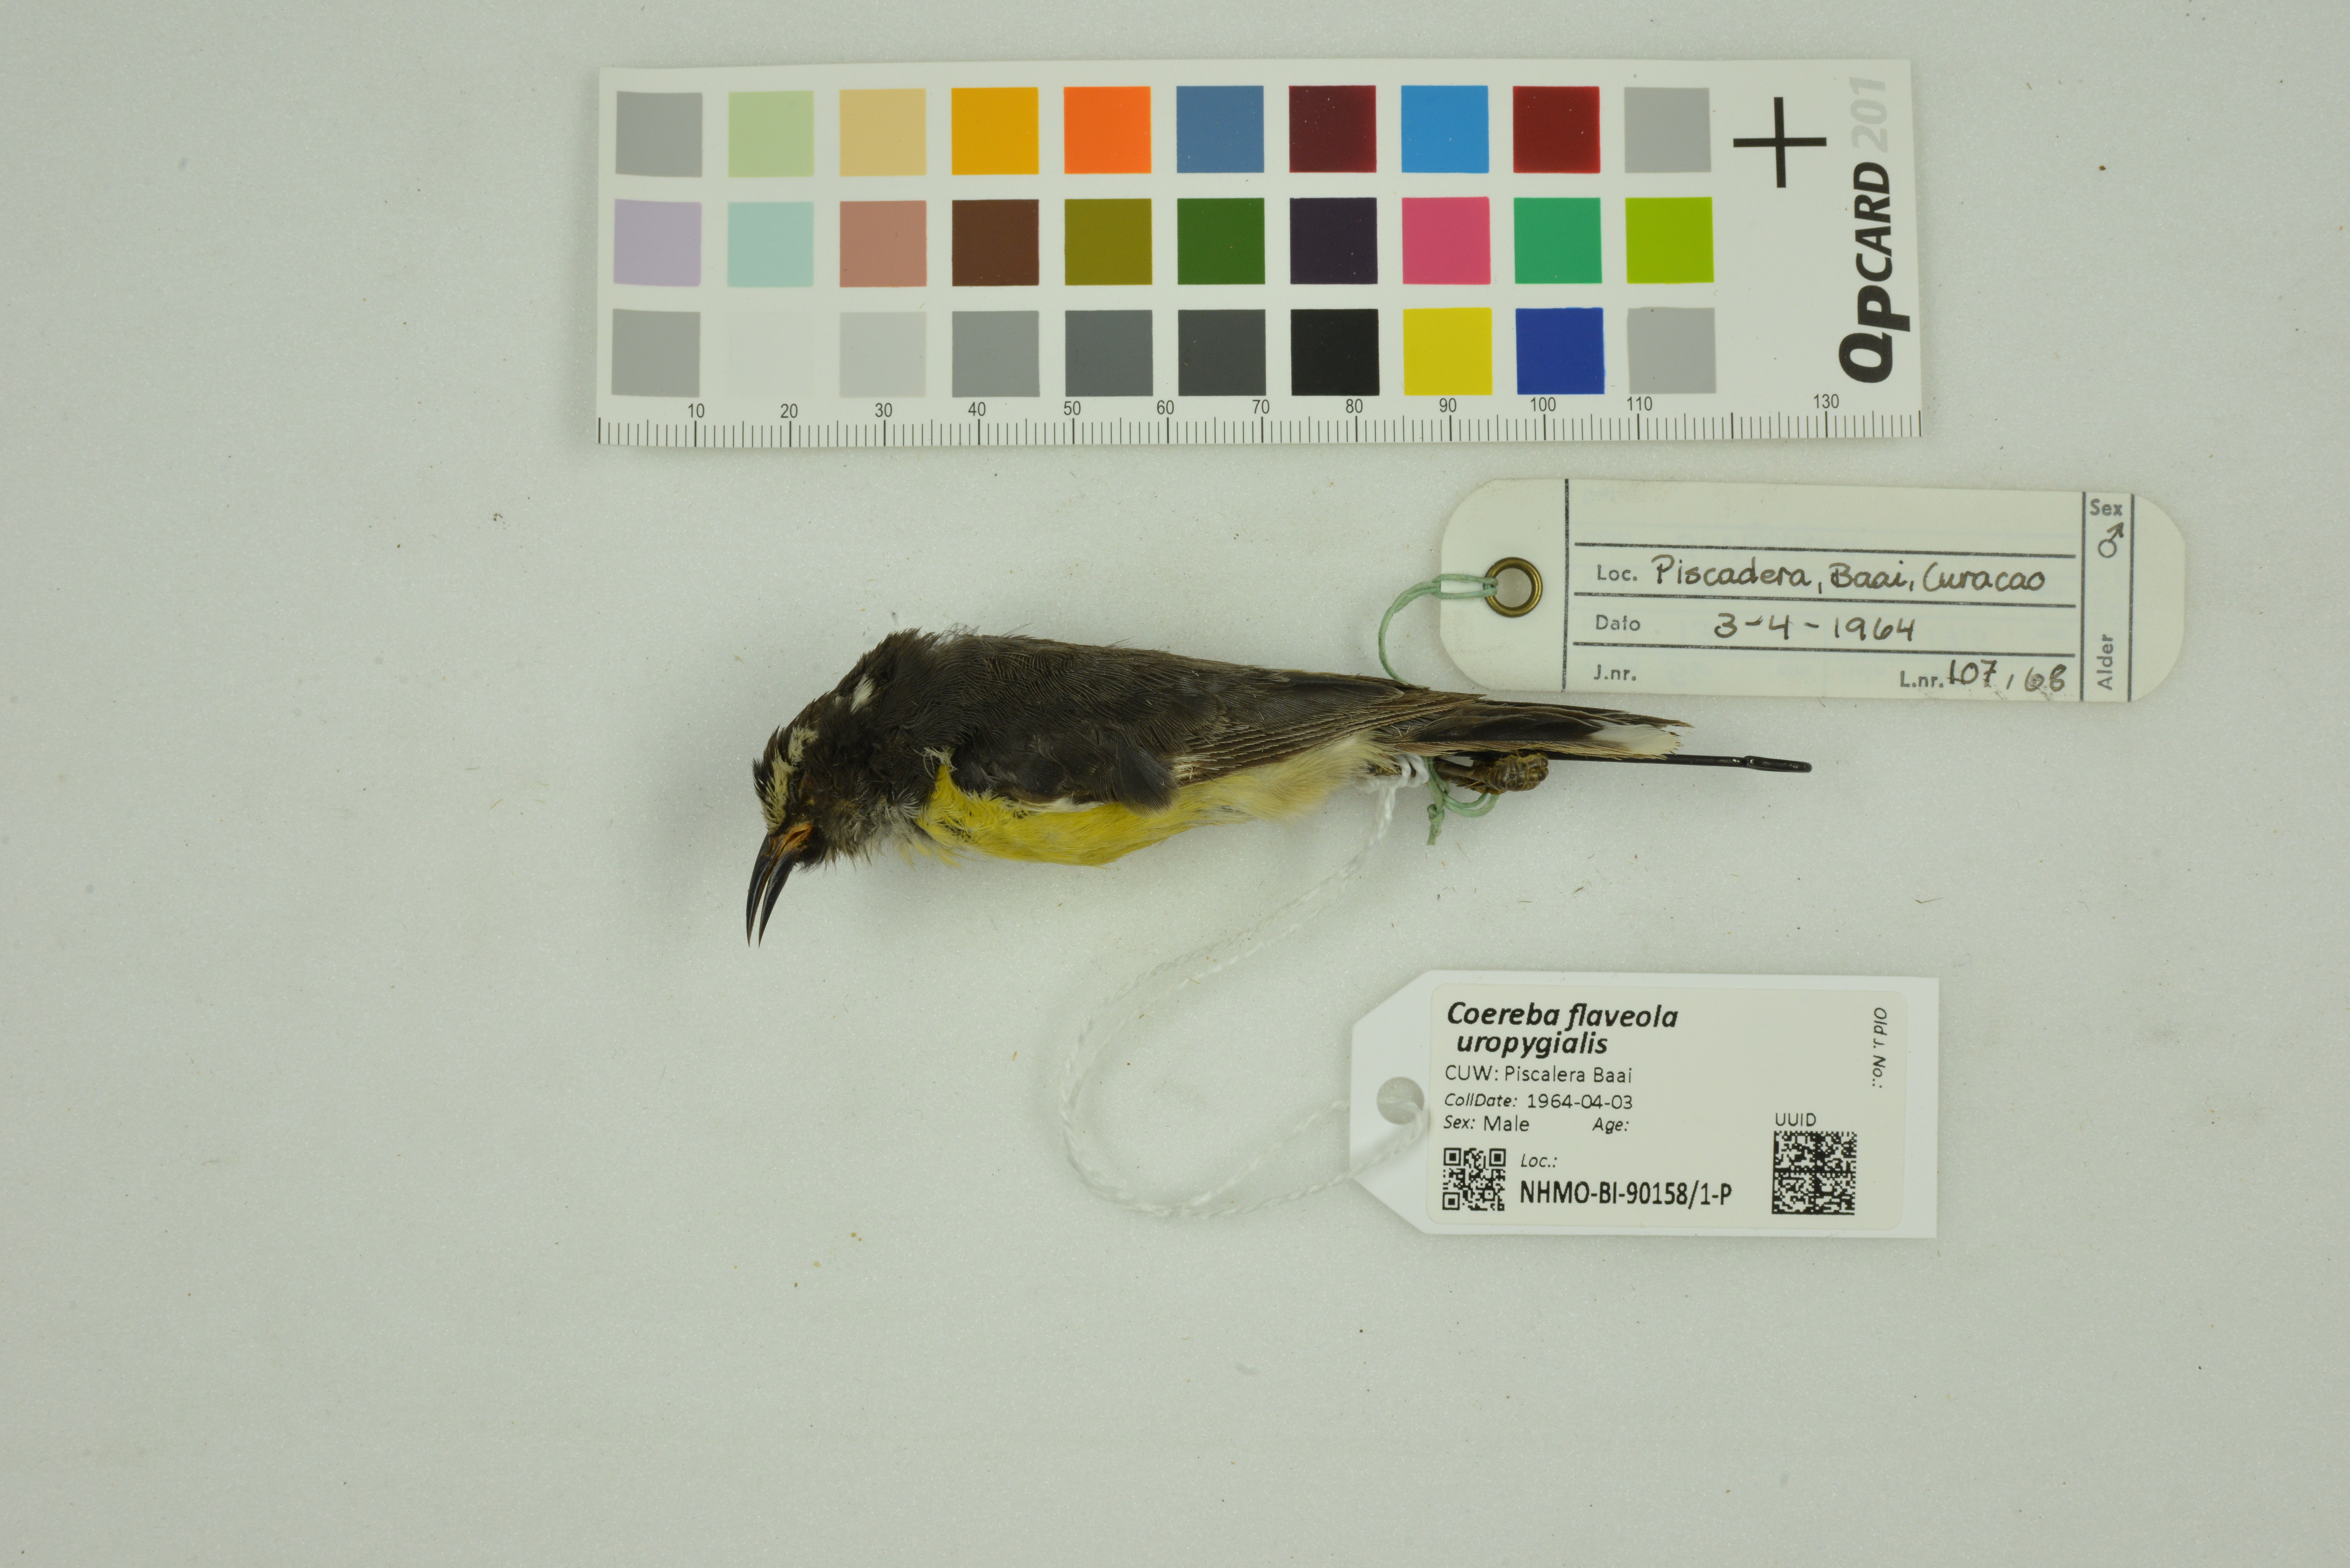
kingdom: Animalia
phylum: Chordata
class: Aves
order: Passeriformes
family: Thraupidae
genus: Coereba
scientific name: Coereba flaveola
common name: Bananaquit
